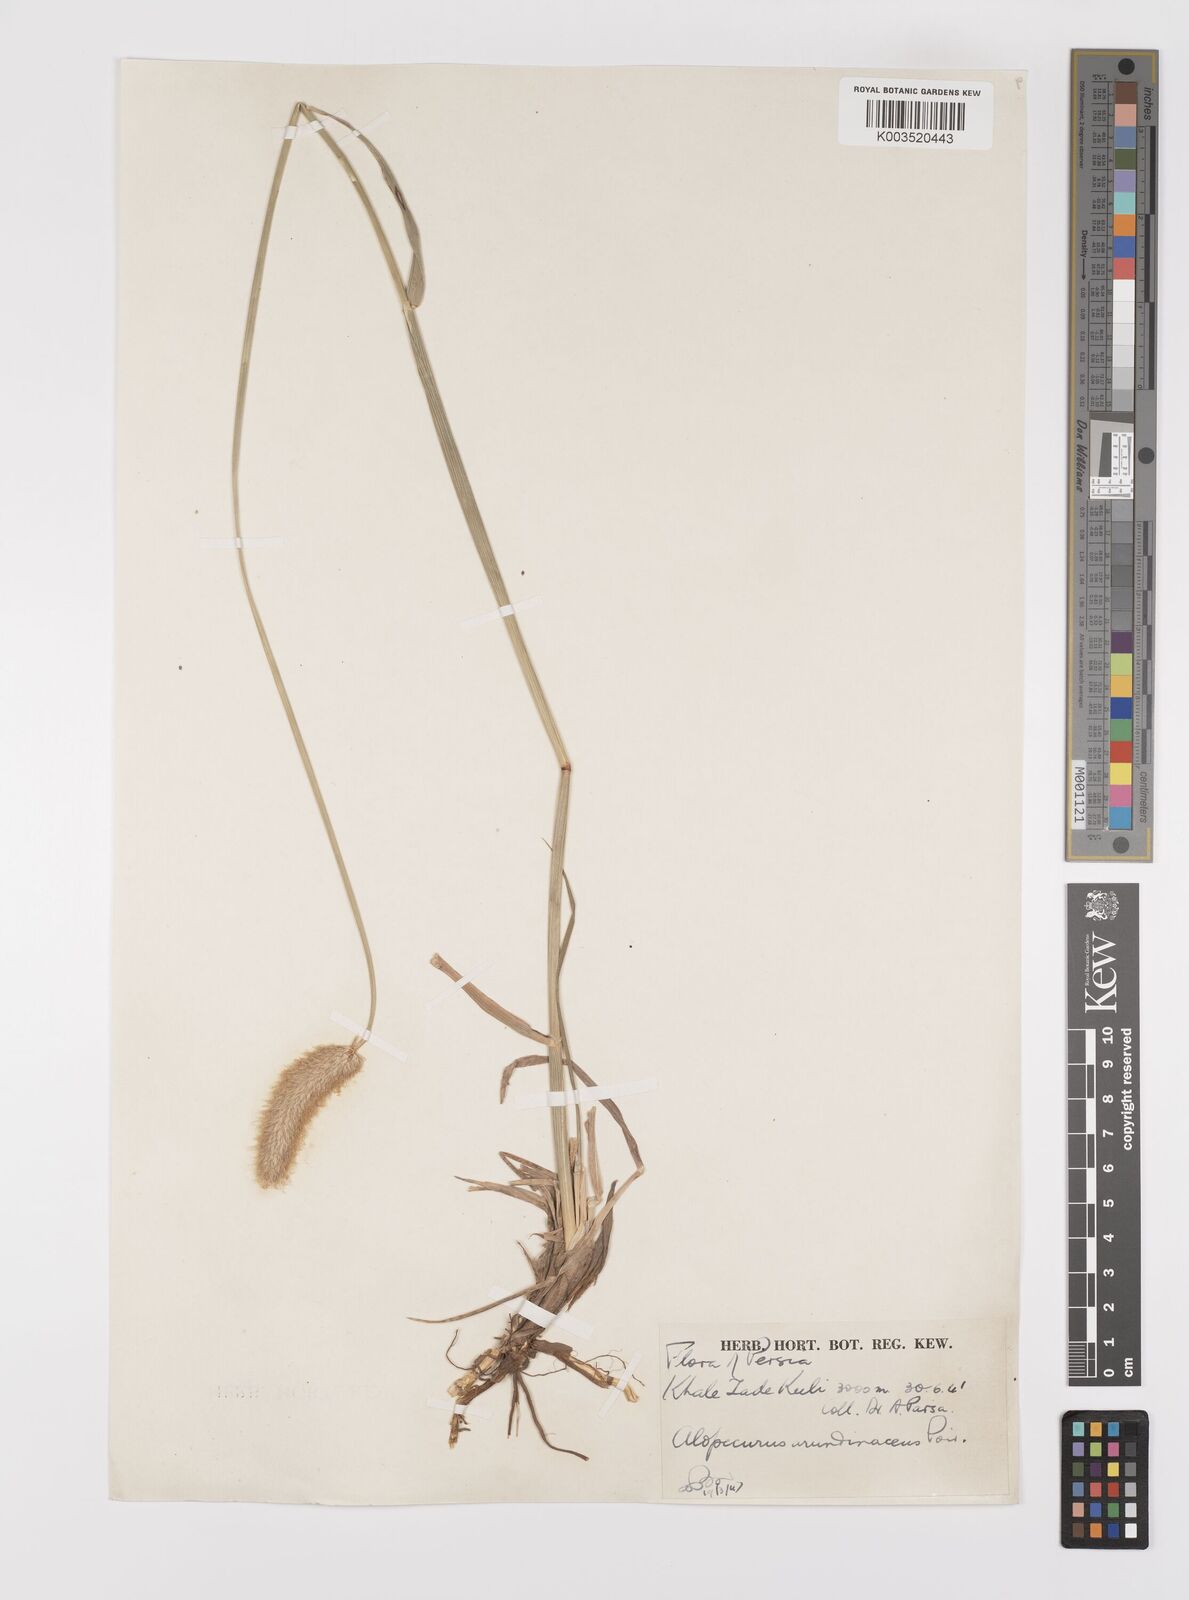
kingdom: Plantae
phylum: Tracheophyta
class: Liliopsida
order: Poales
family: Poaceae
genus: Alopecurus
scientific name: Alopecurus arundinaceus
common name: Creeping meadow foxtail
